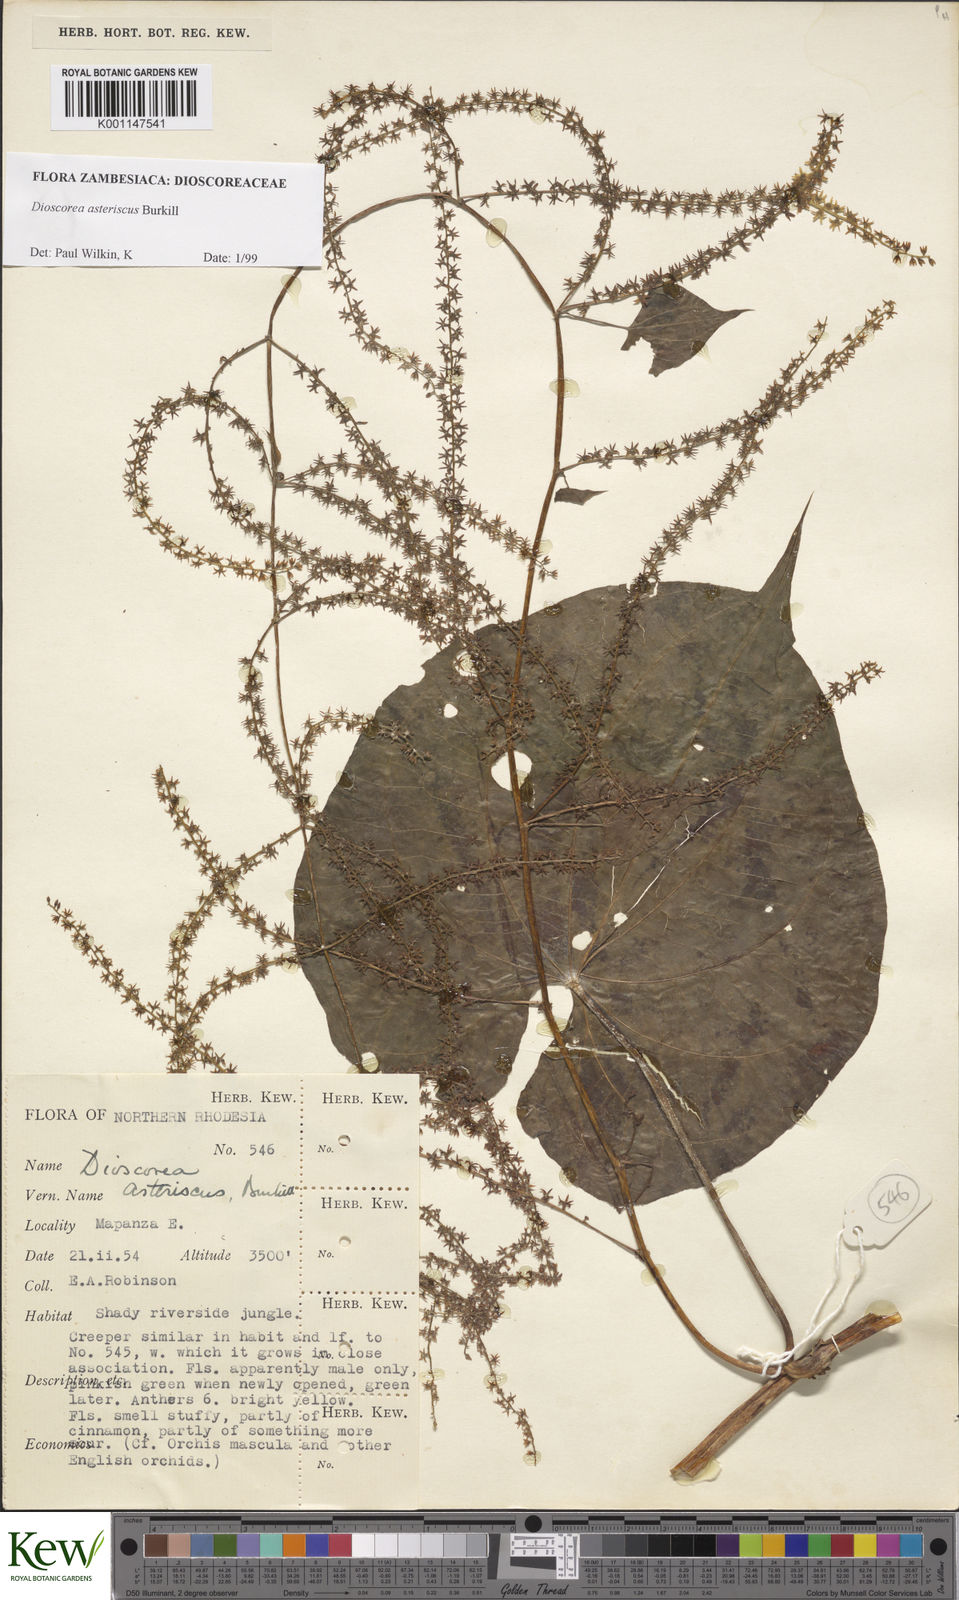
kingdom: Plantae
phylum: Tracheophyta
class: Liliopsida
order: Dioscoreales
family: Dioscoreaceae
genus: Dioscorea
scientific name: Dioscorea asteriscus
